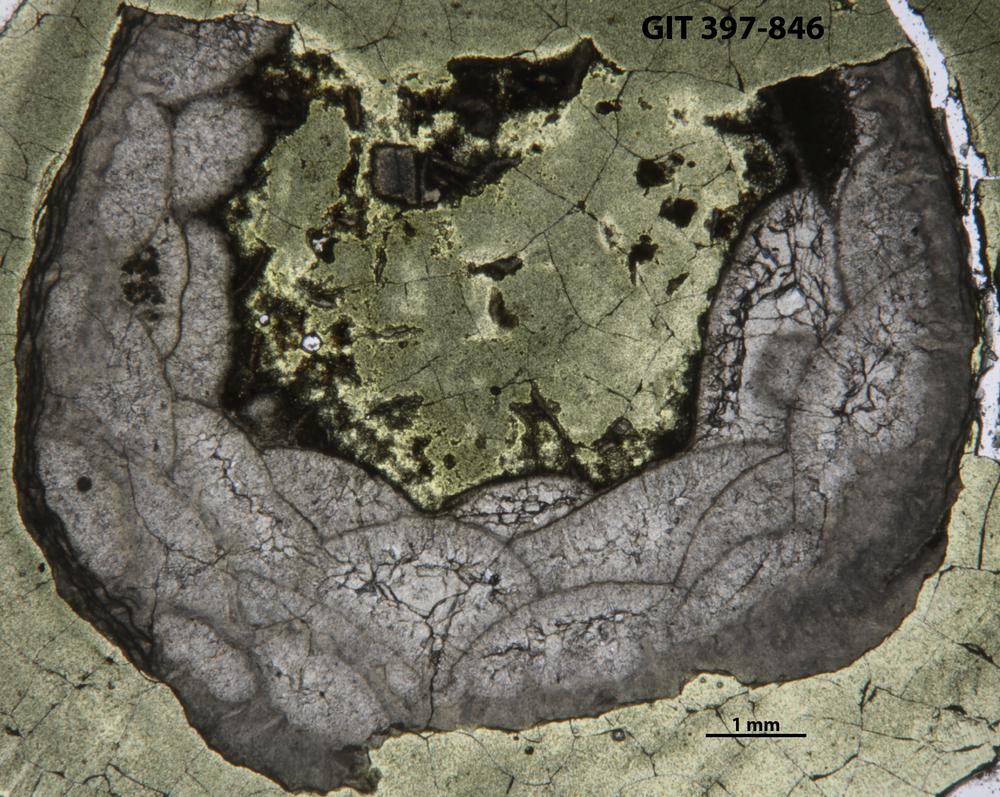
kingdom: Animalia
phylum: Cnidaria
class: Anthozoa
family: Cystiphyllidae
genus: Microplasma
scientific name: Microplasma
